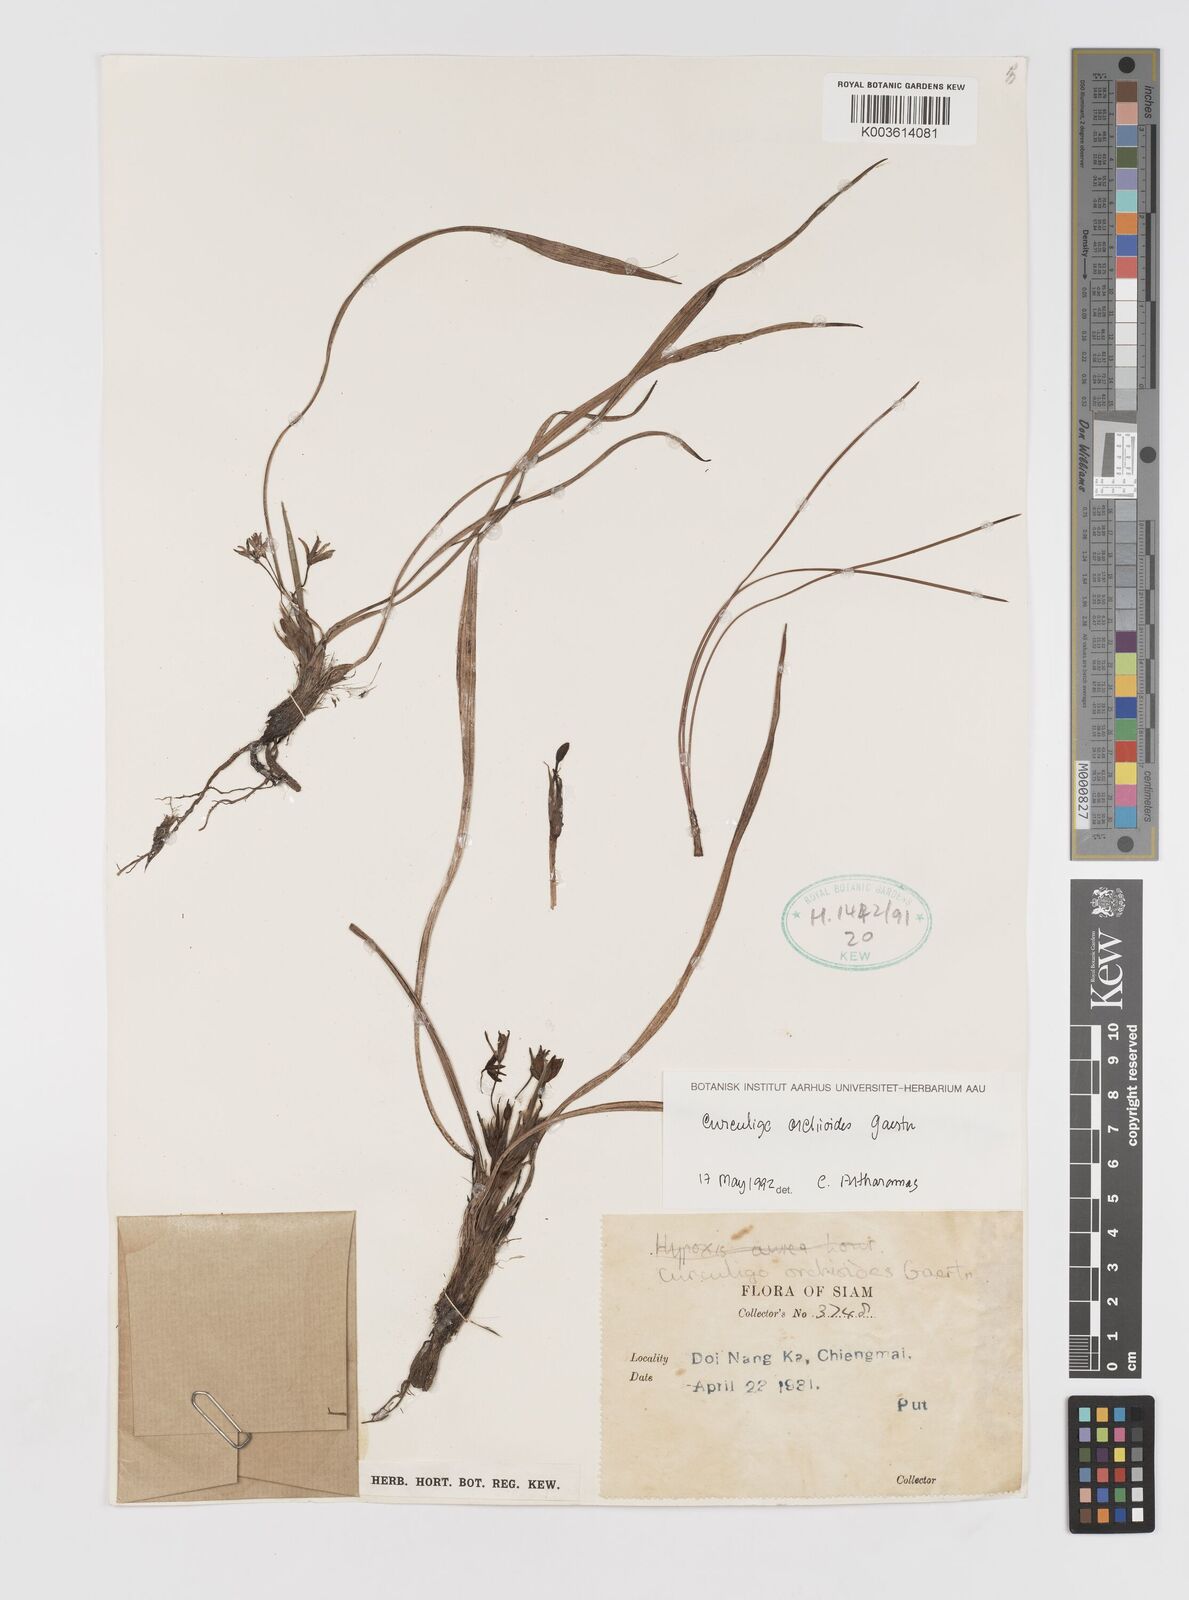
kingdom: Plantae
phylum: Tracheophyta
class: Liliopsida
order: Asparagales
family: Hypoxidaceae
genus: Curculigo
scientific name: Curculigo orchioides
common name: Golden eye-grass
